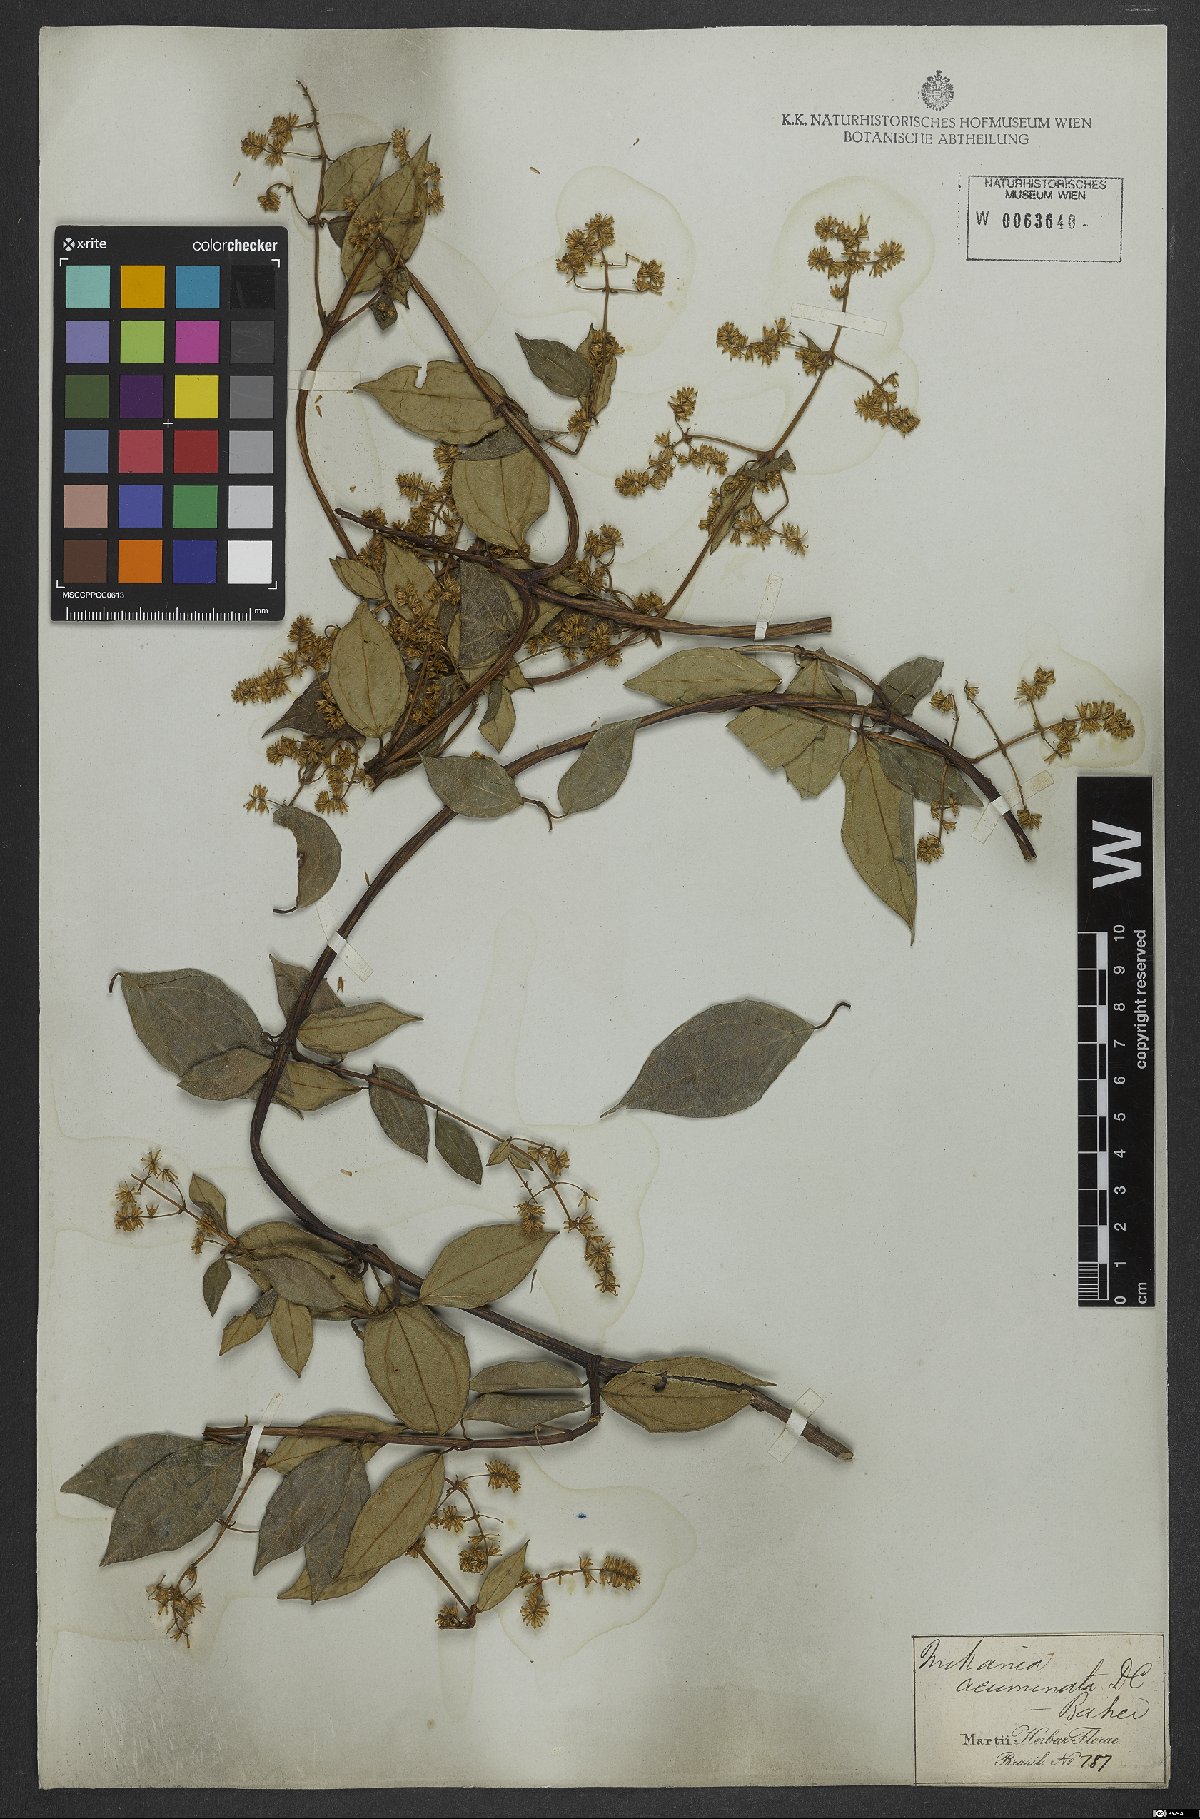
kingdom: Plantae
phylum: Tracheophyta
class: Magnoliopsida
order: Asterales
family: Asteraceae
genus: Mikania
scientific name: Mikania acuminata
